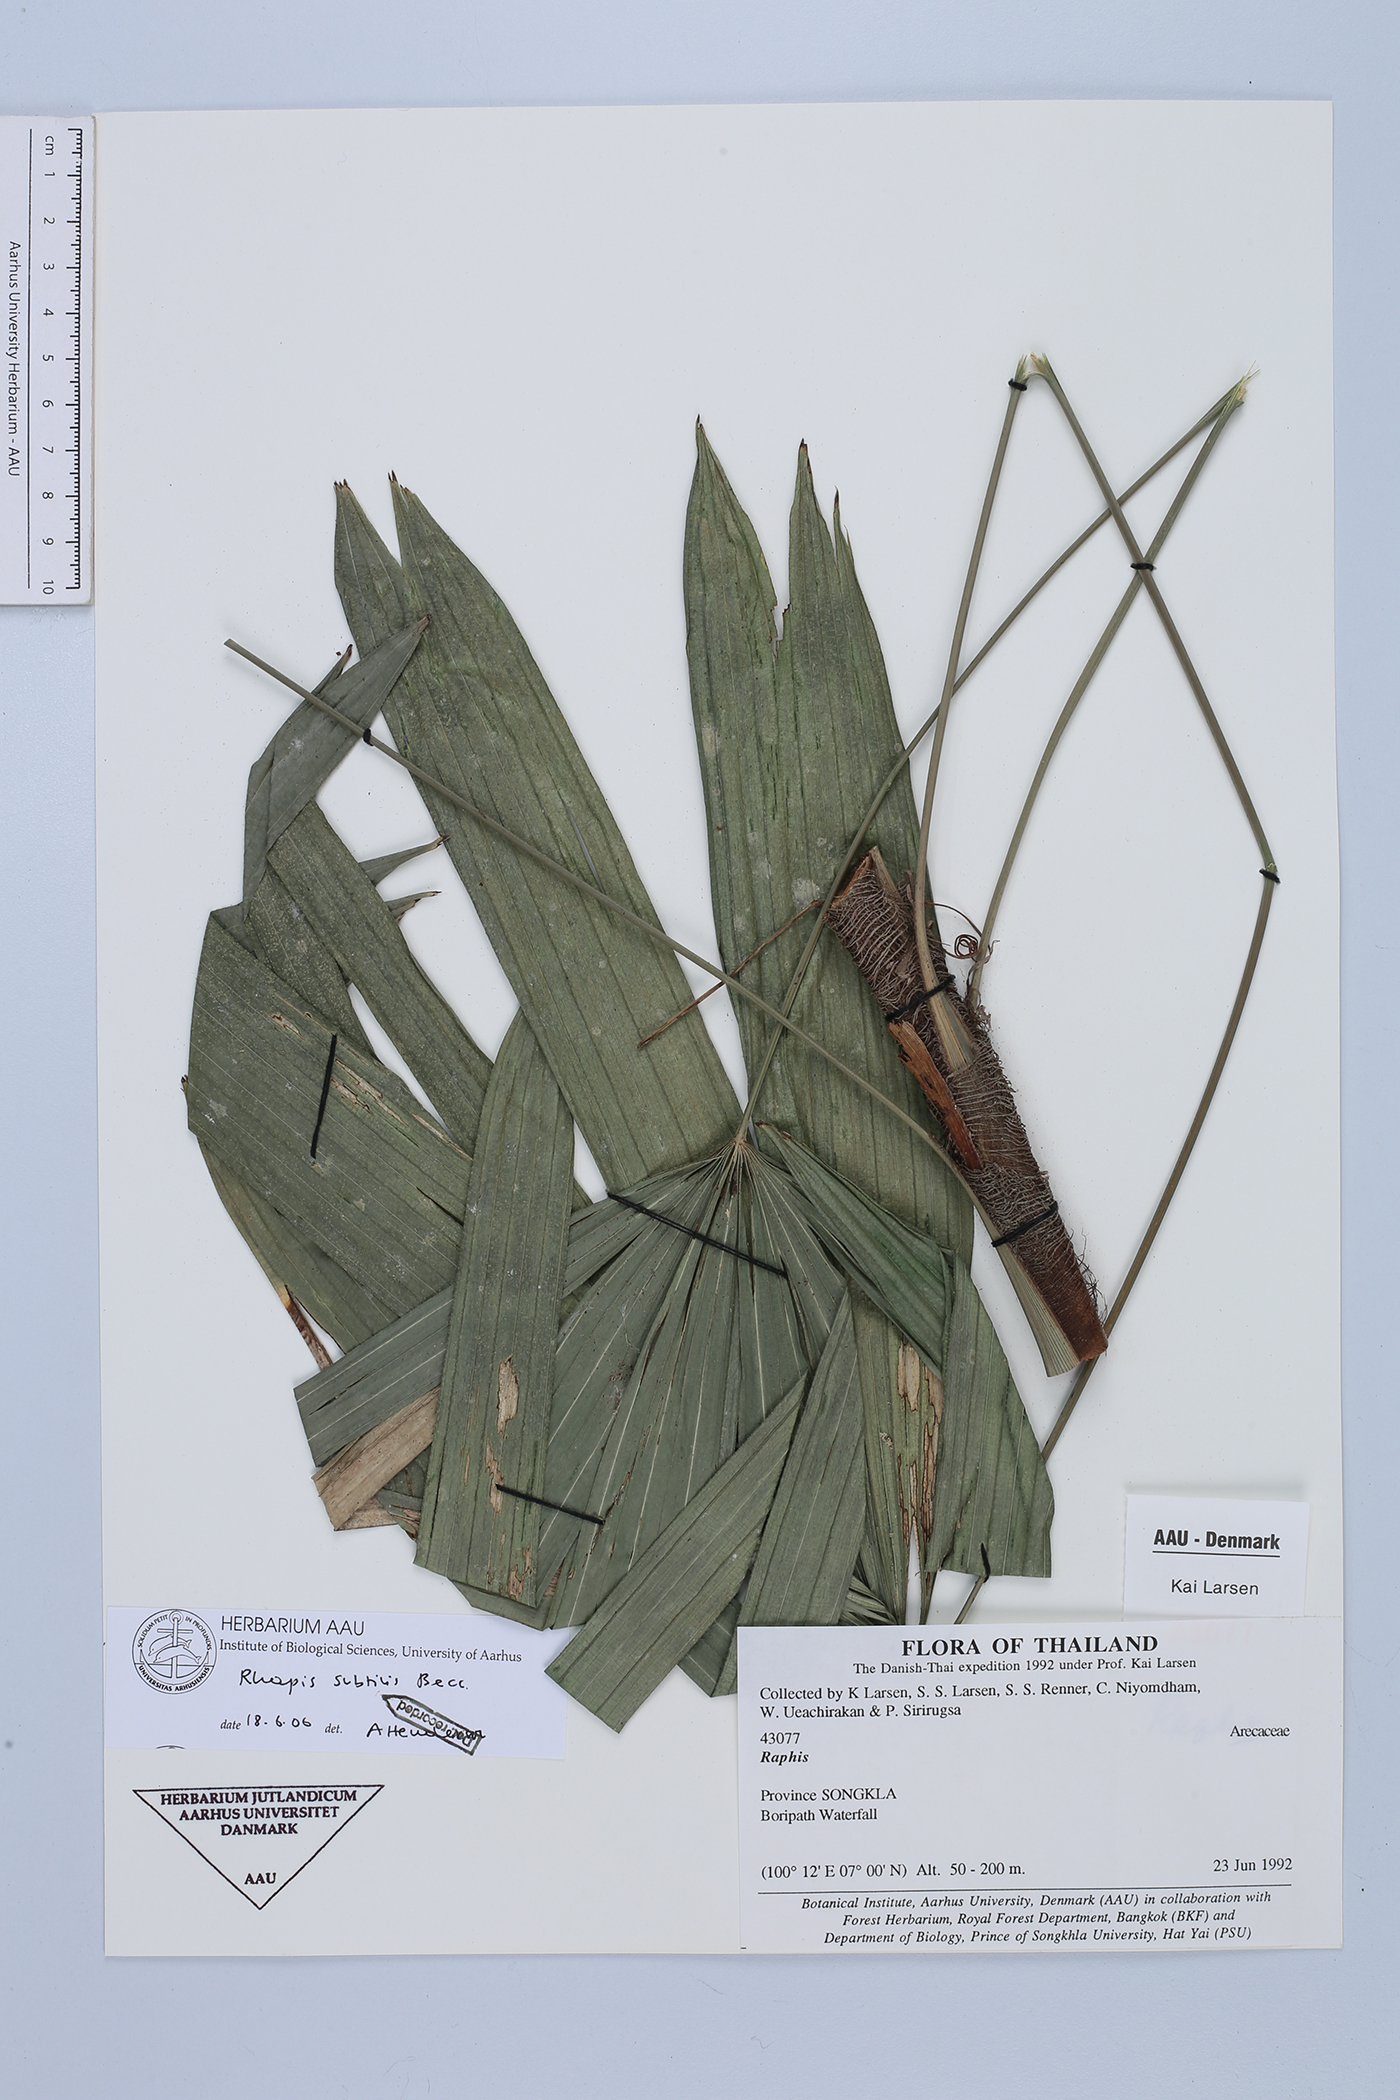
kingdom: Plantae
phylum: Tracheophyta
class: Liliopsida
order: Arecales
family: Arecaceae
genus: Rhapis
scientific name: Rhapis subtilis
